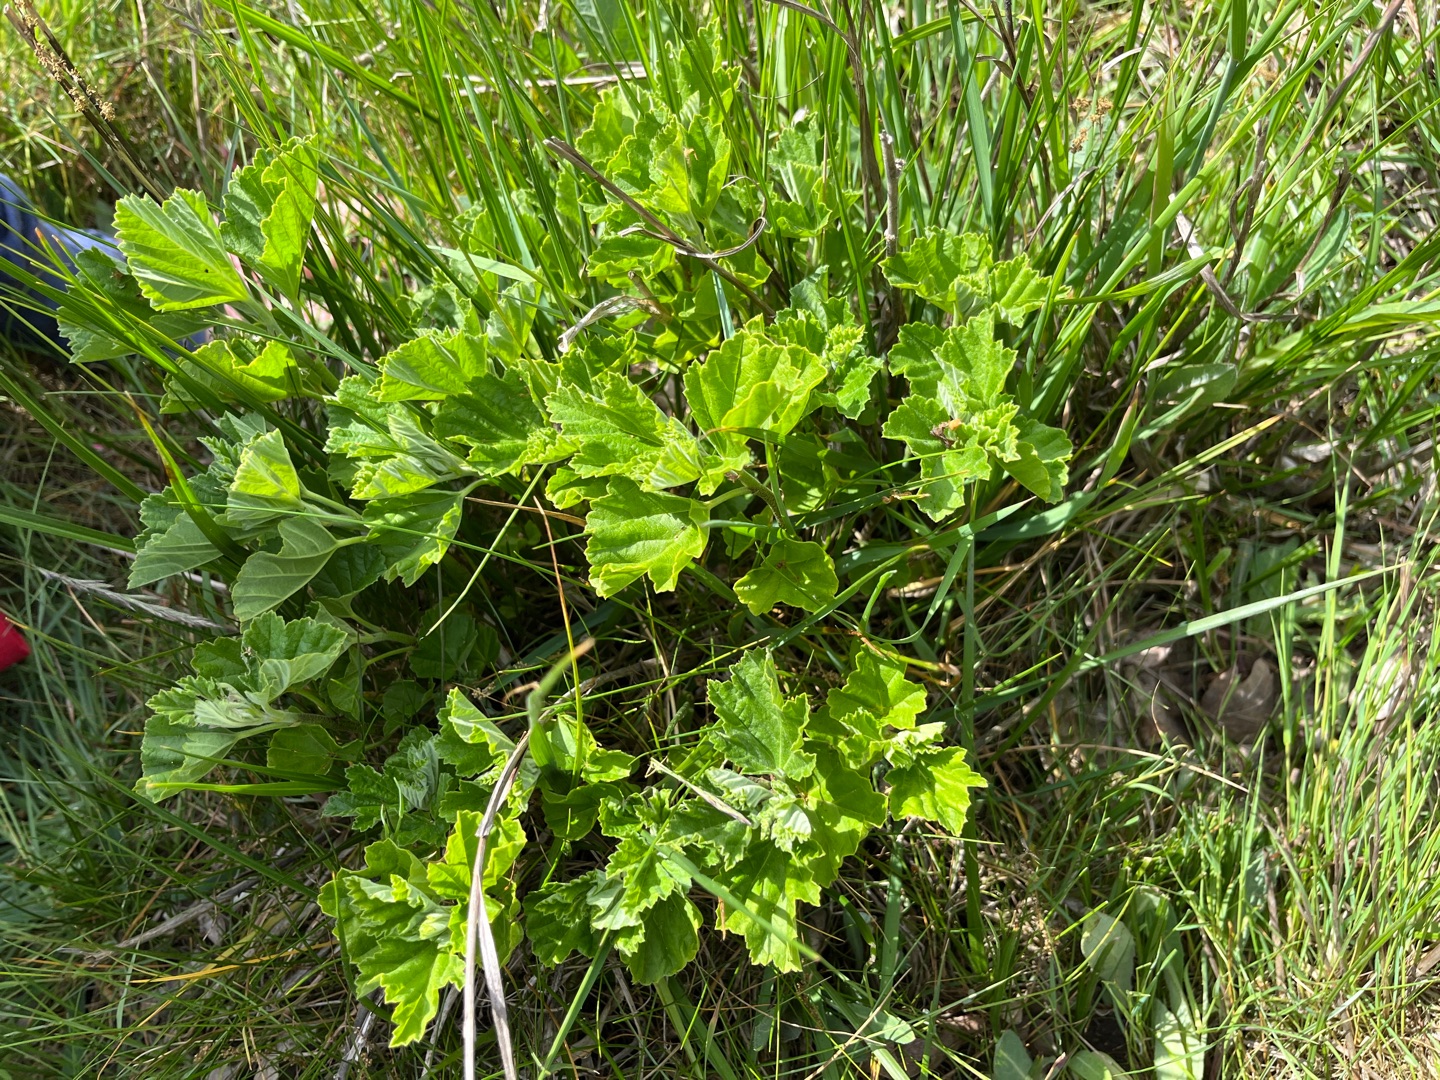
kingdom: Plantae
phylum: Tracheophyta
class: Magnoliopsida
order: Malvales
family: Malvaceae
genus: Althaea
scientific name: Althaea officinalis
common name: Lægestokrose
